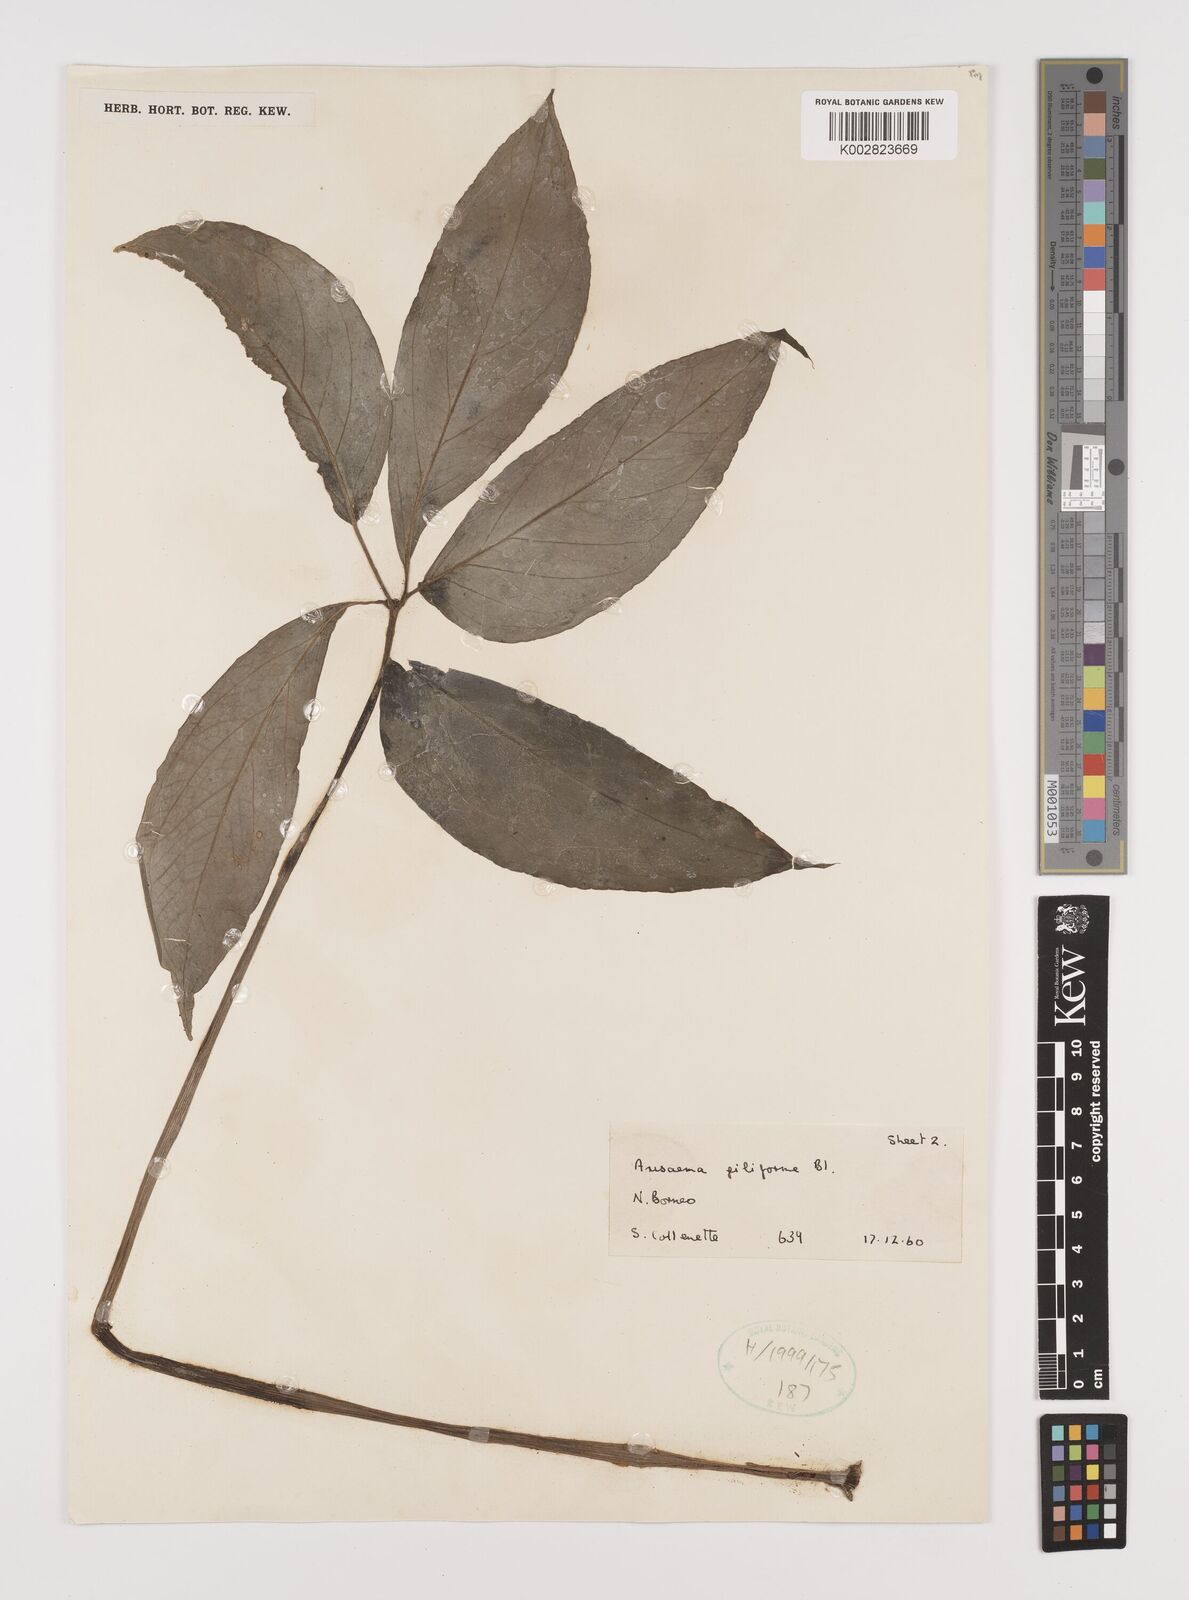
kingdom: Plantae
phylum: Tracheophyta
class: Liliopsida
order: Alismatales
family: Araceae
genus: Arisaema
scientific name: Arisaema filiforme
